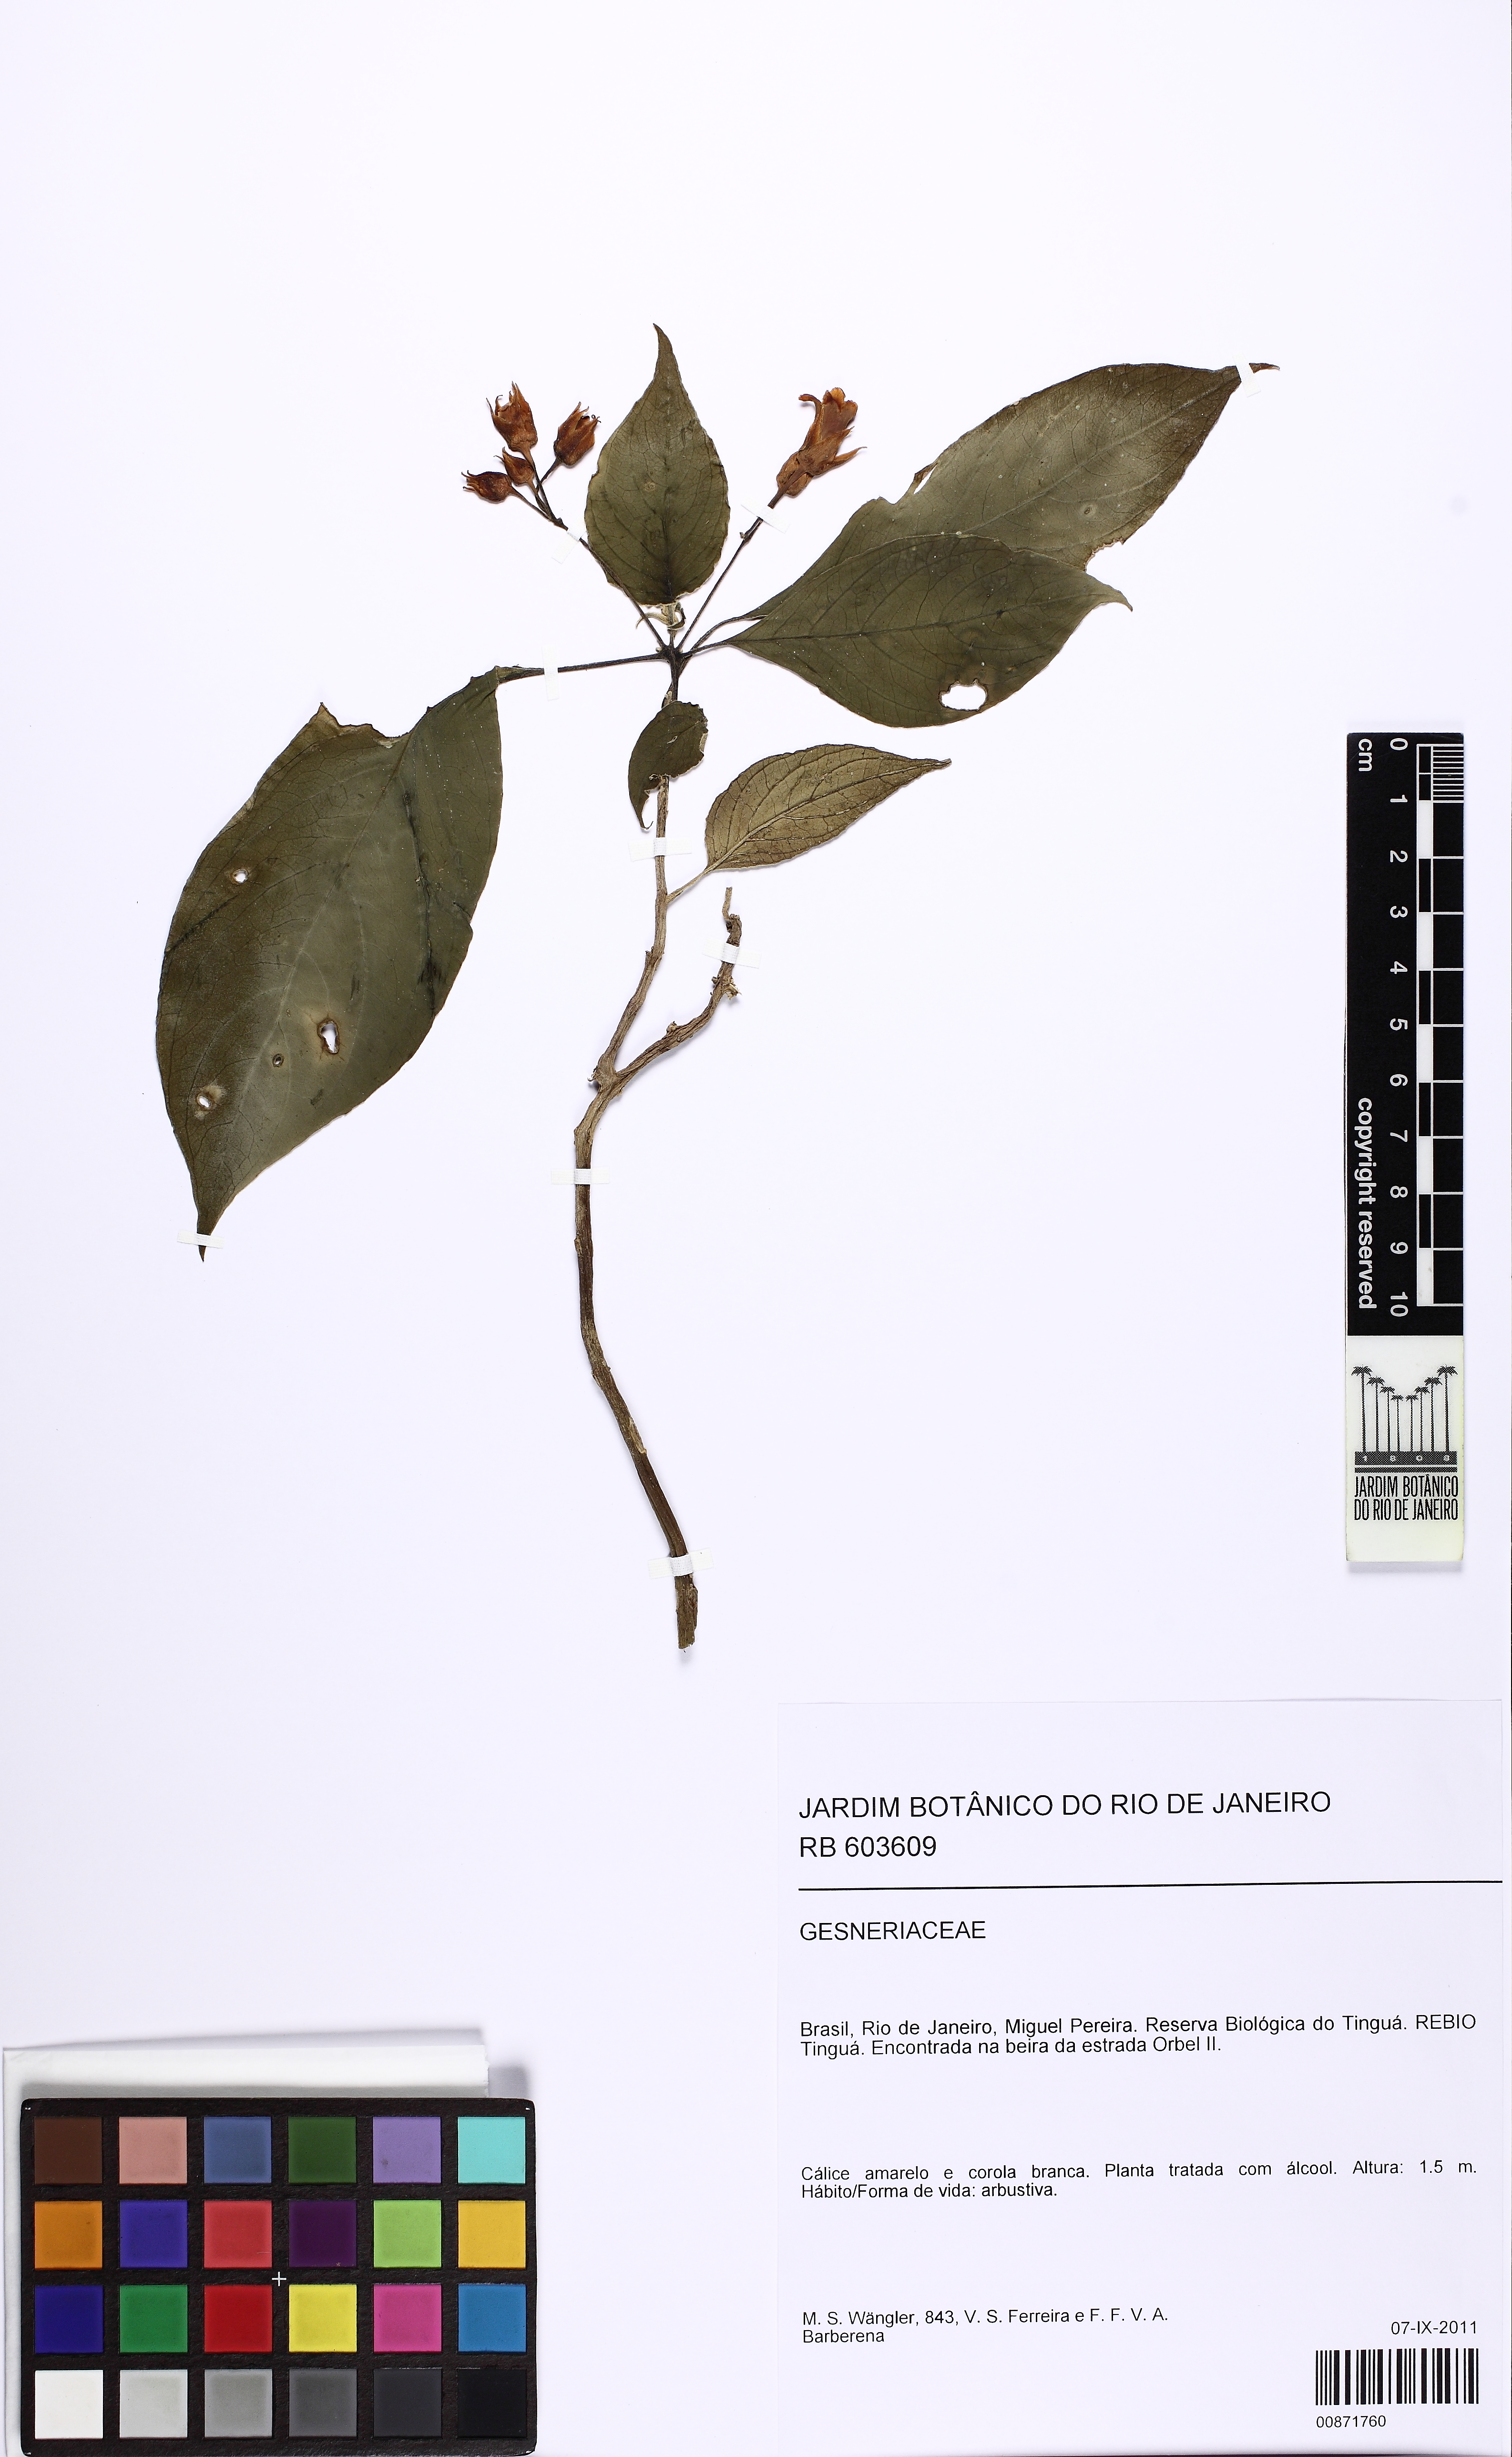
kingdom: Plantae
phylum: Tracheophyta
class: Magnoliopsida
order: Lamiales
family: Gesneriaceae
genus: Besleria
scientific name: Besleria longimucronata
